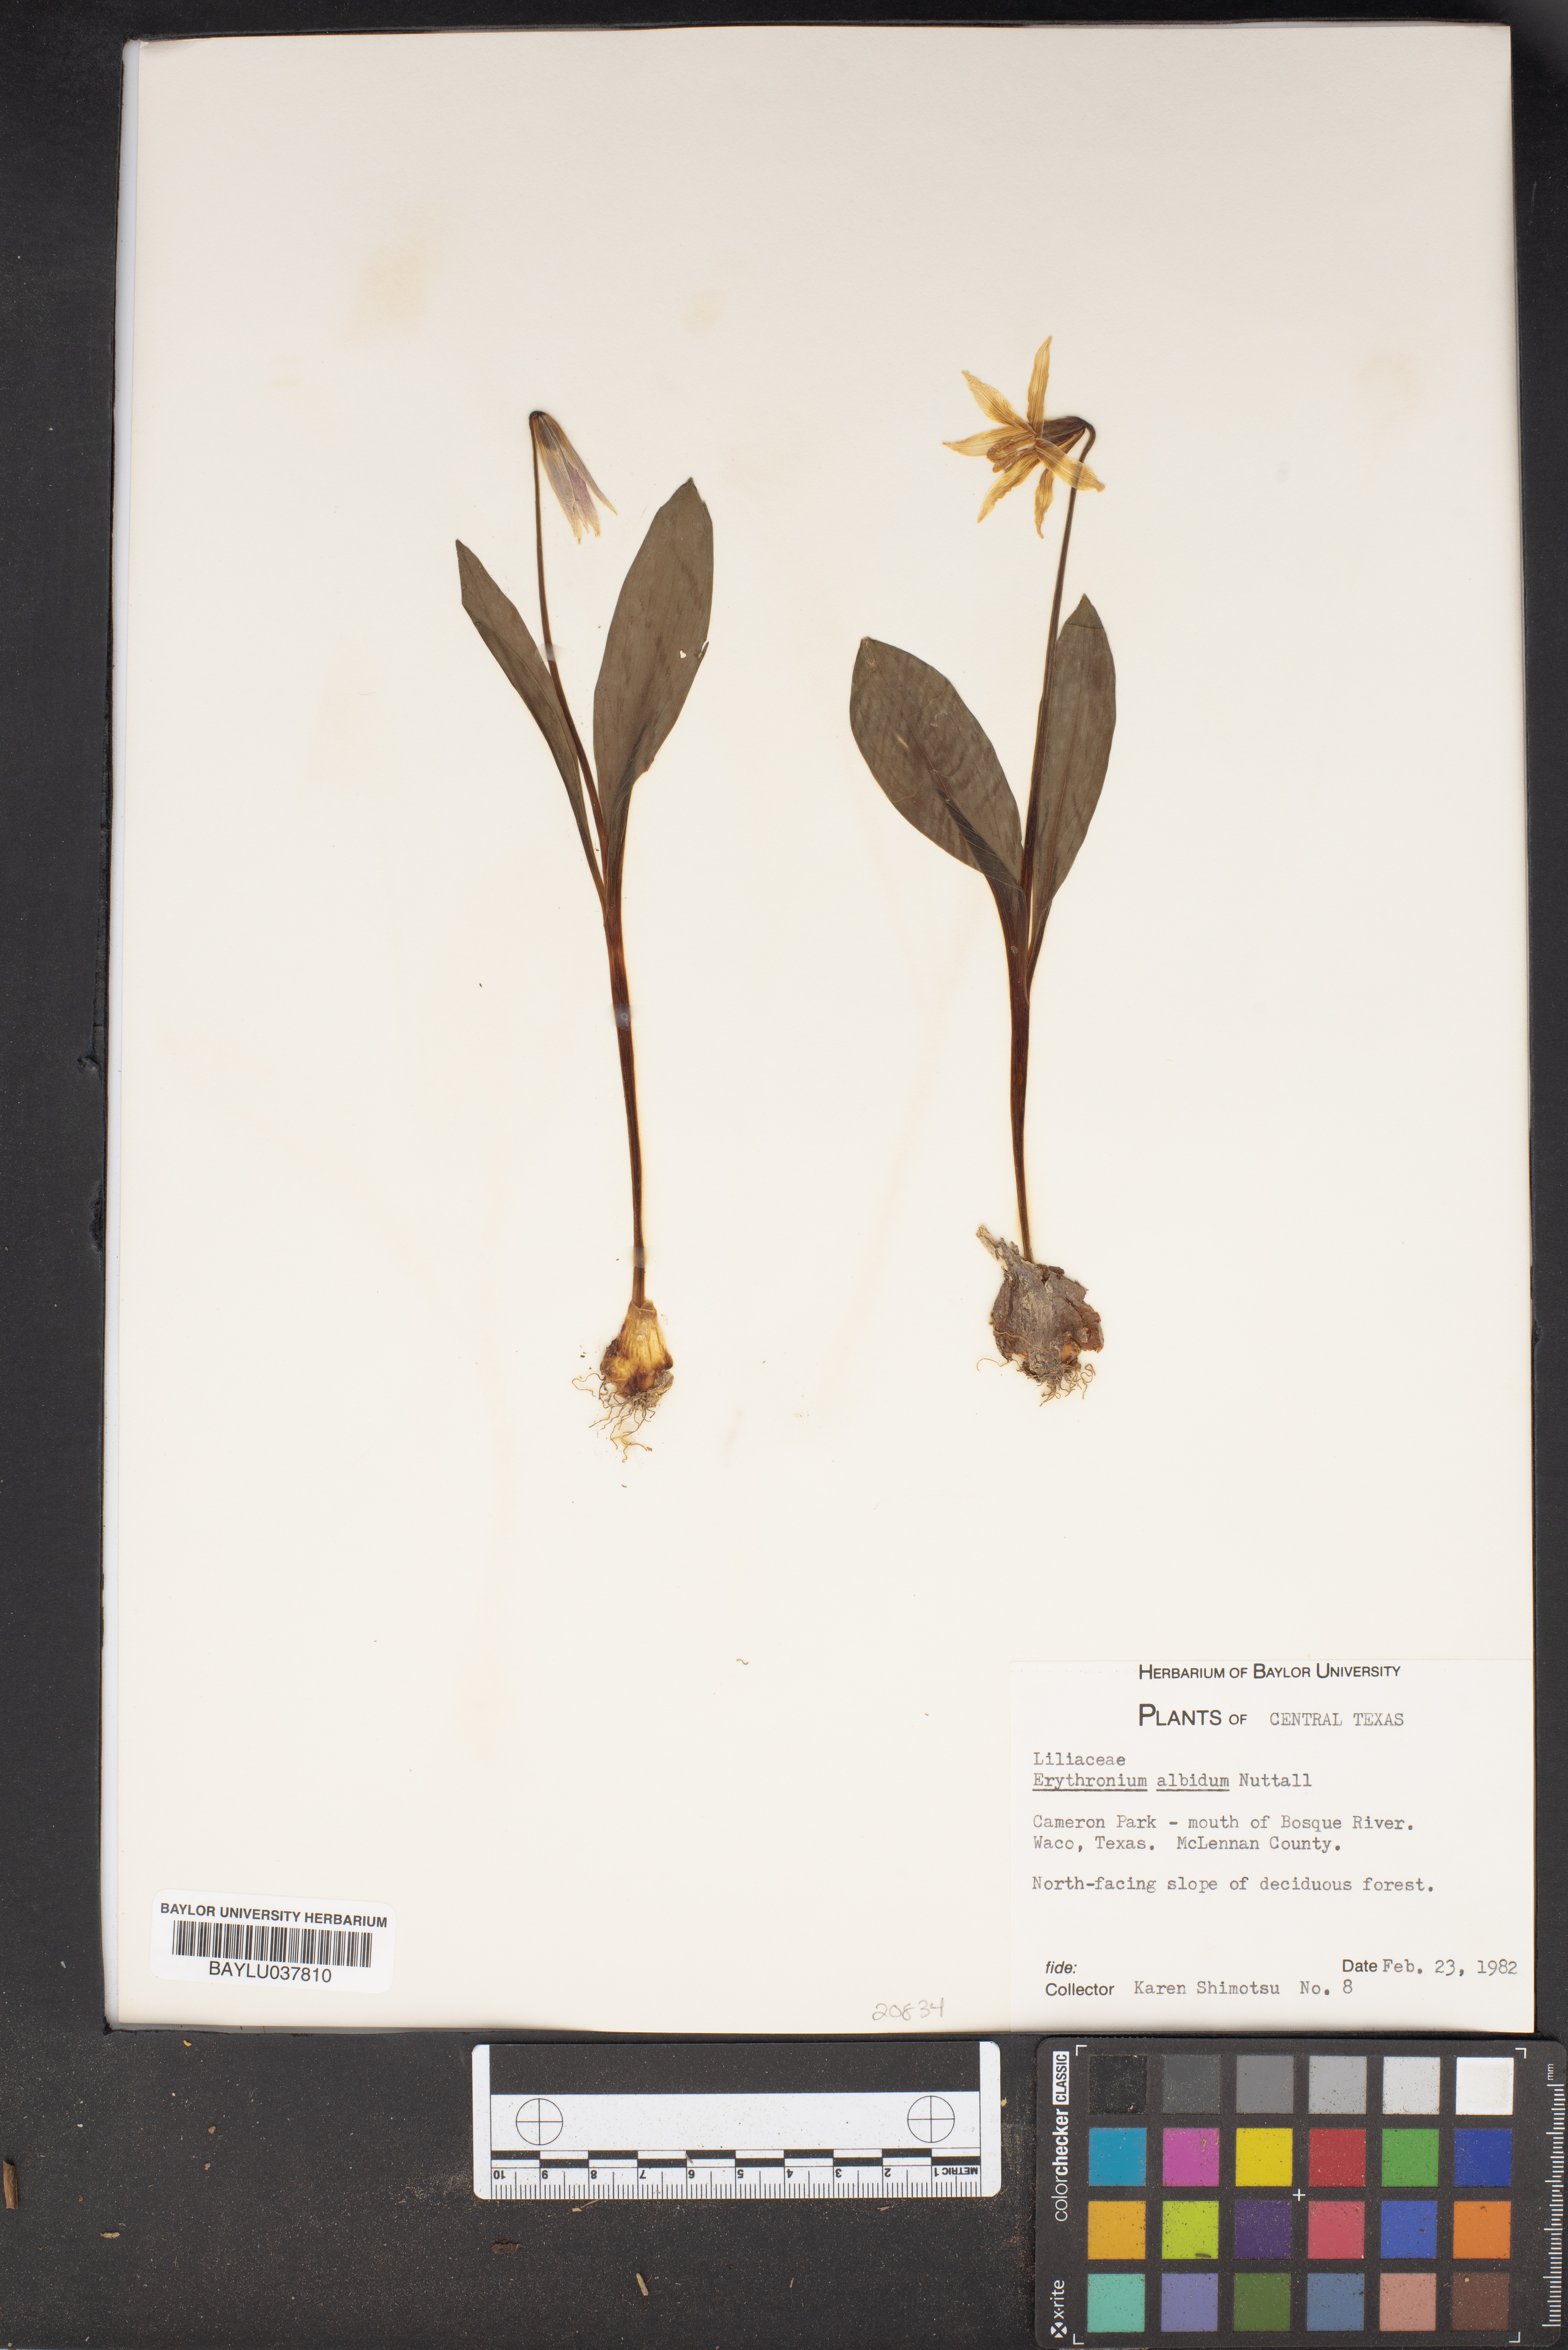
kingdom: Plantae
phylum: Tracheophyta
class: Liliopsida
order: Liliales
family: Liliaceae
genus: Erythronium
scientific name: Erythronium albidum
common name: White trout-lily
